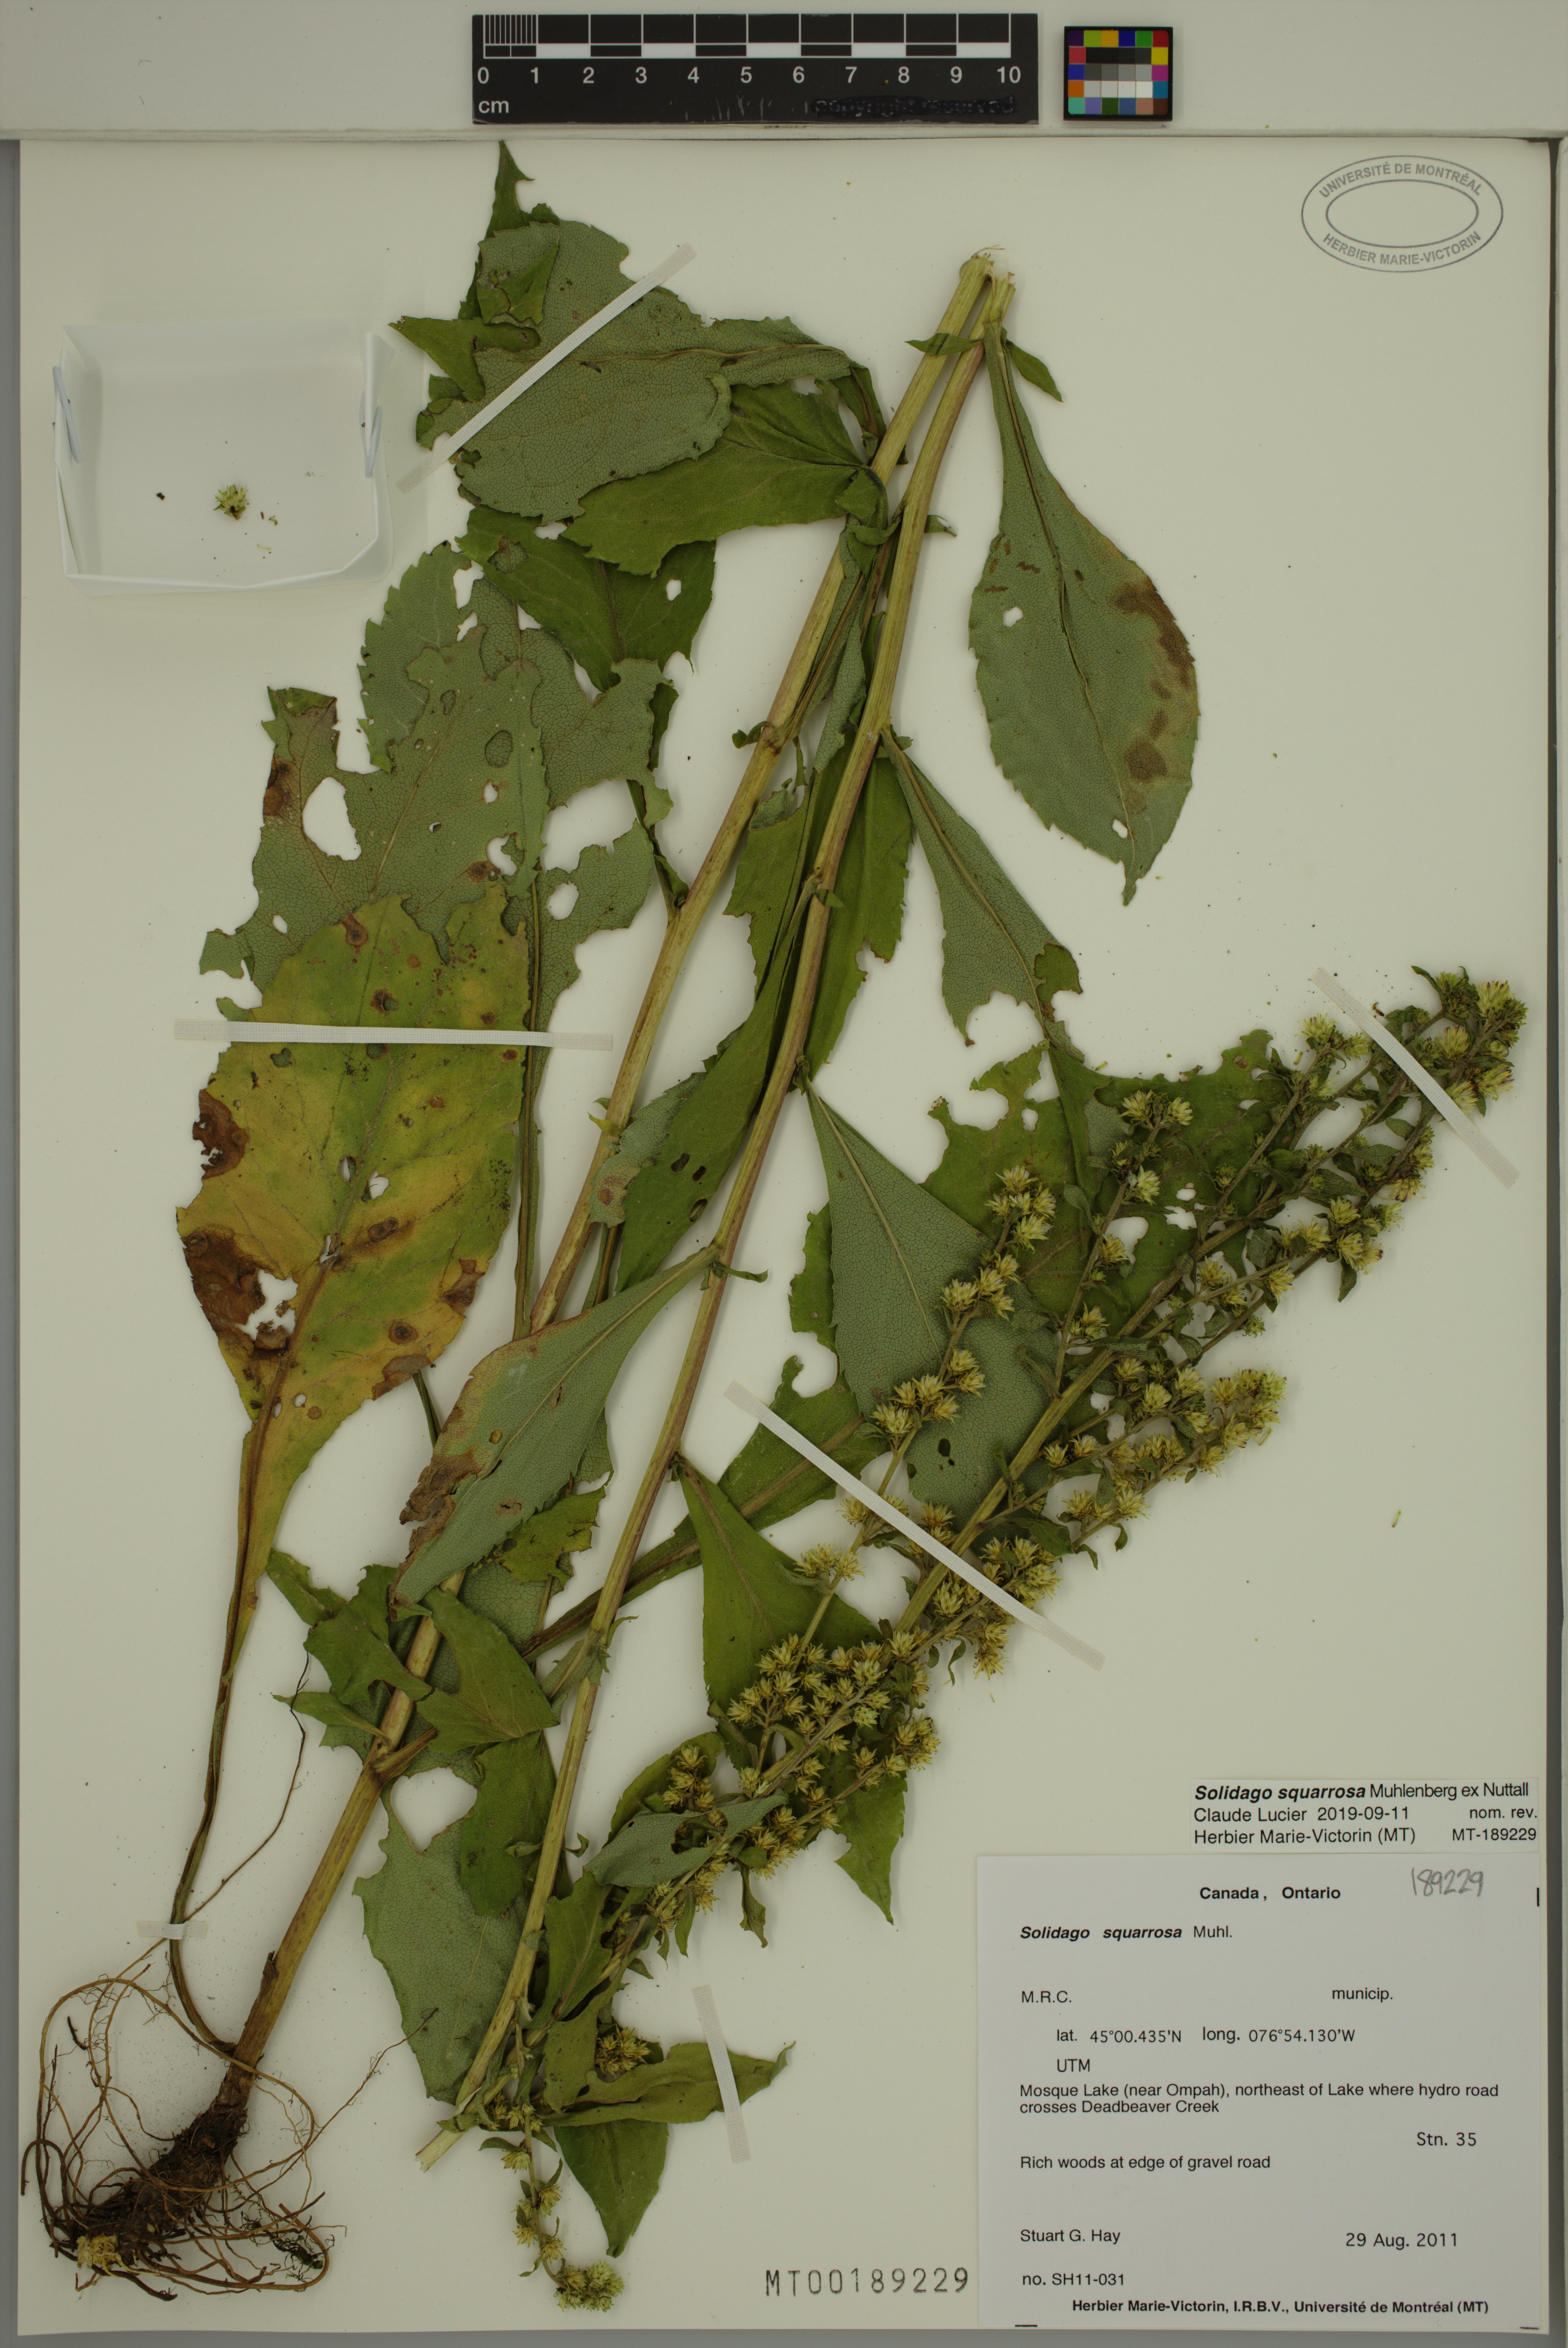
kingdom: Plantae
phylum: Tracheophyta
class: Magnoliopsida
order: Asterales
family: Asteraceae
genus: Solidago
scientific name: Solidago petiolaris
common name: Downy ragged goldenrod
